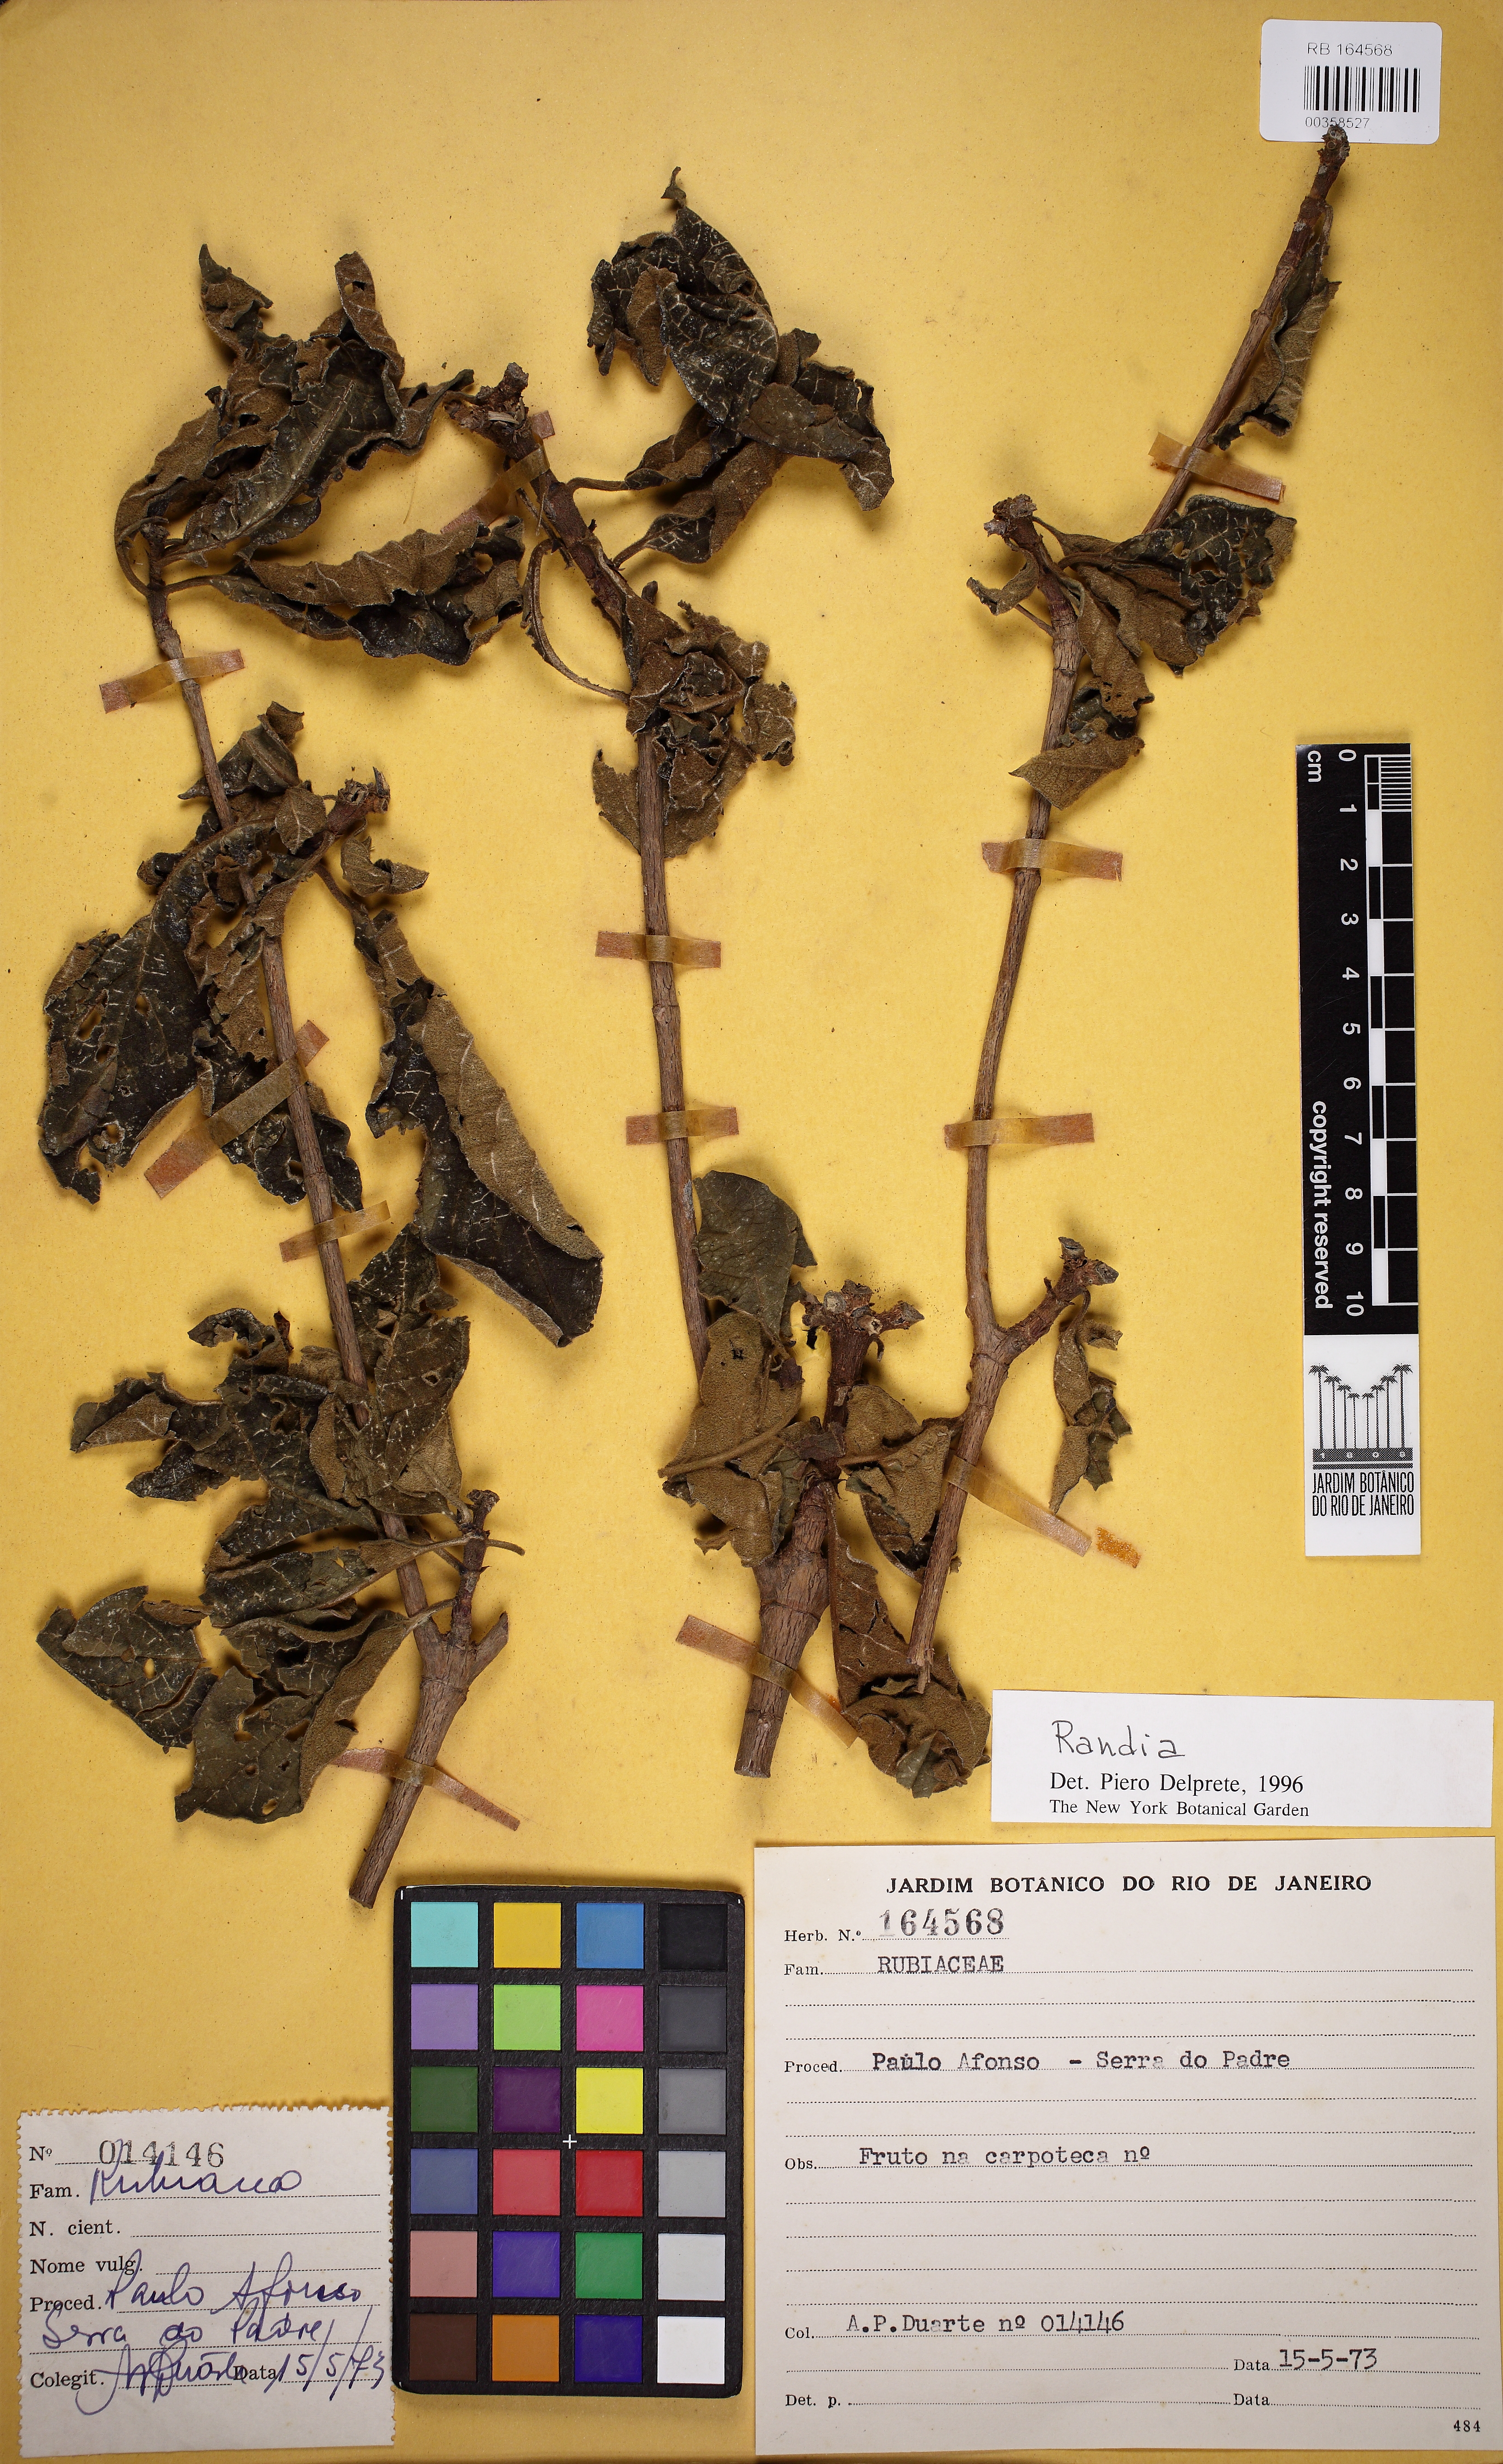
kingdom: Plantae
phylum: Tracheophyta
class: Magnoliopsida
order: Gentianales
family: Rubiaceae
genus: Randia
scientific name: Randia
